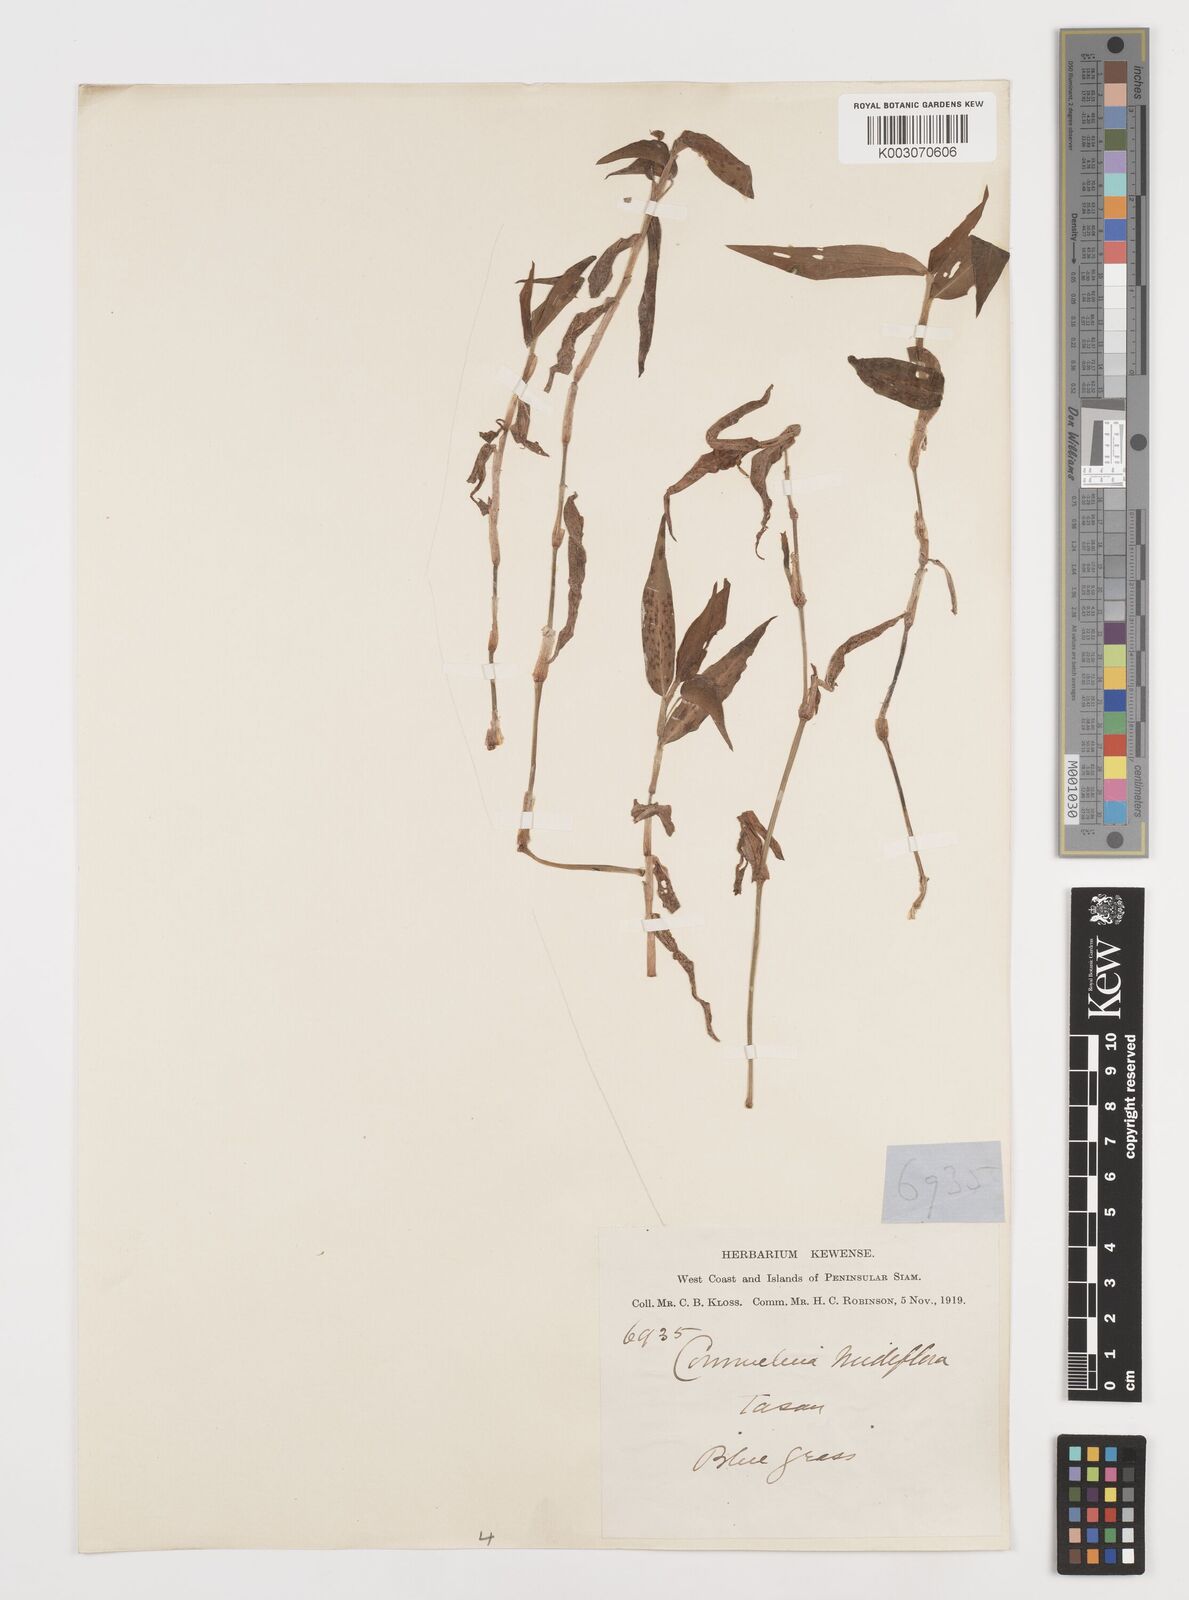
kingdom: Plantae
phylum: Tracheophyta
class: Liliopsida
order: Commelinales
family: Commelinaceae
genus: Commelina
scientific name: Commelina clavata
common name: Willow leaved dayflower
